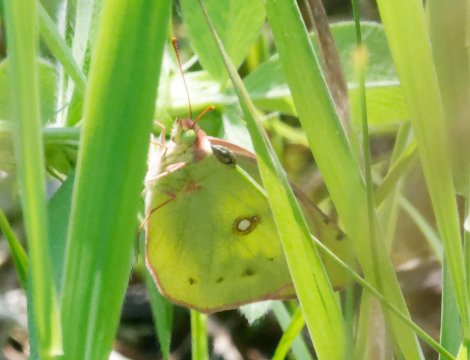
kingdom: Animalia
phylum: Arthropoda
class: Insecta
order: Lepidoptera
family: Pieridae
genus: Colias
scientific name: Colias philodice
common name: Clouded Sulphur
